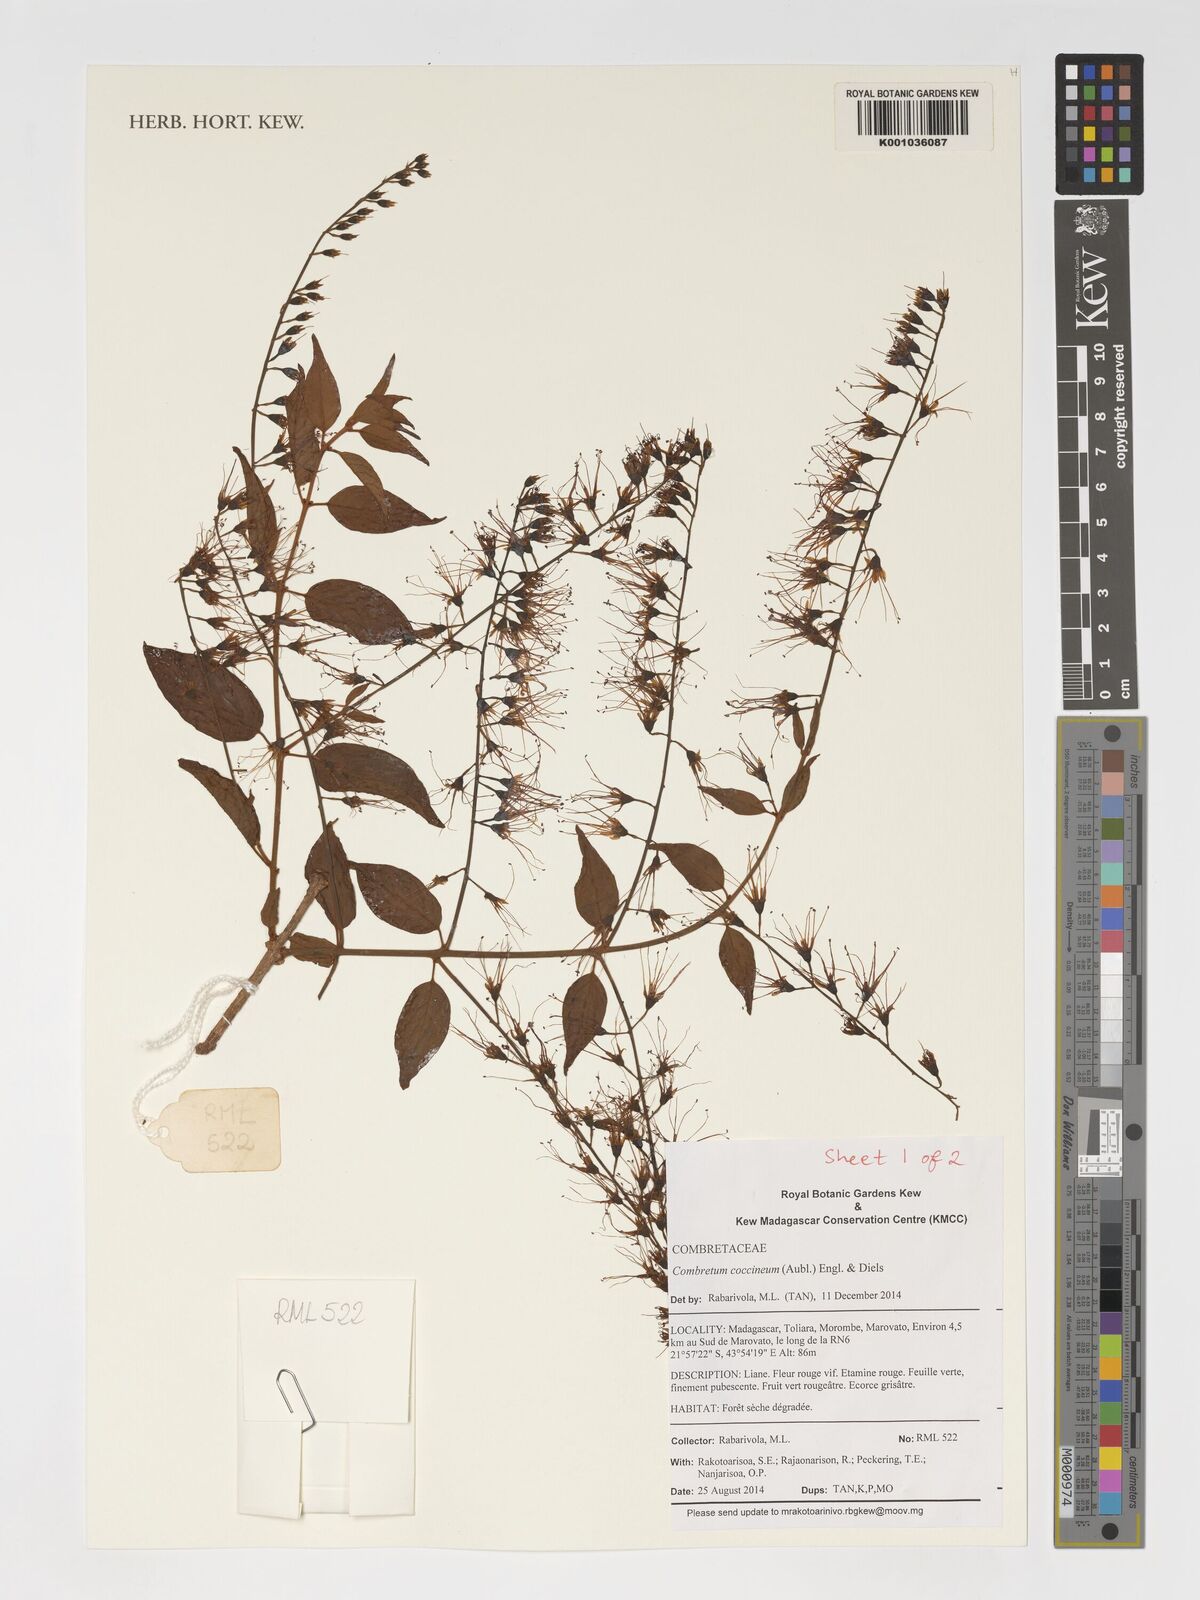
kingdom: Plantae
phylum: Tracheophyta
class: Magnoliopsida
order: Myrtales
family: Combretaceae
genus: Combretum
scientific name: Combretum cacoucia
